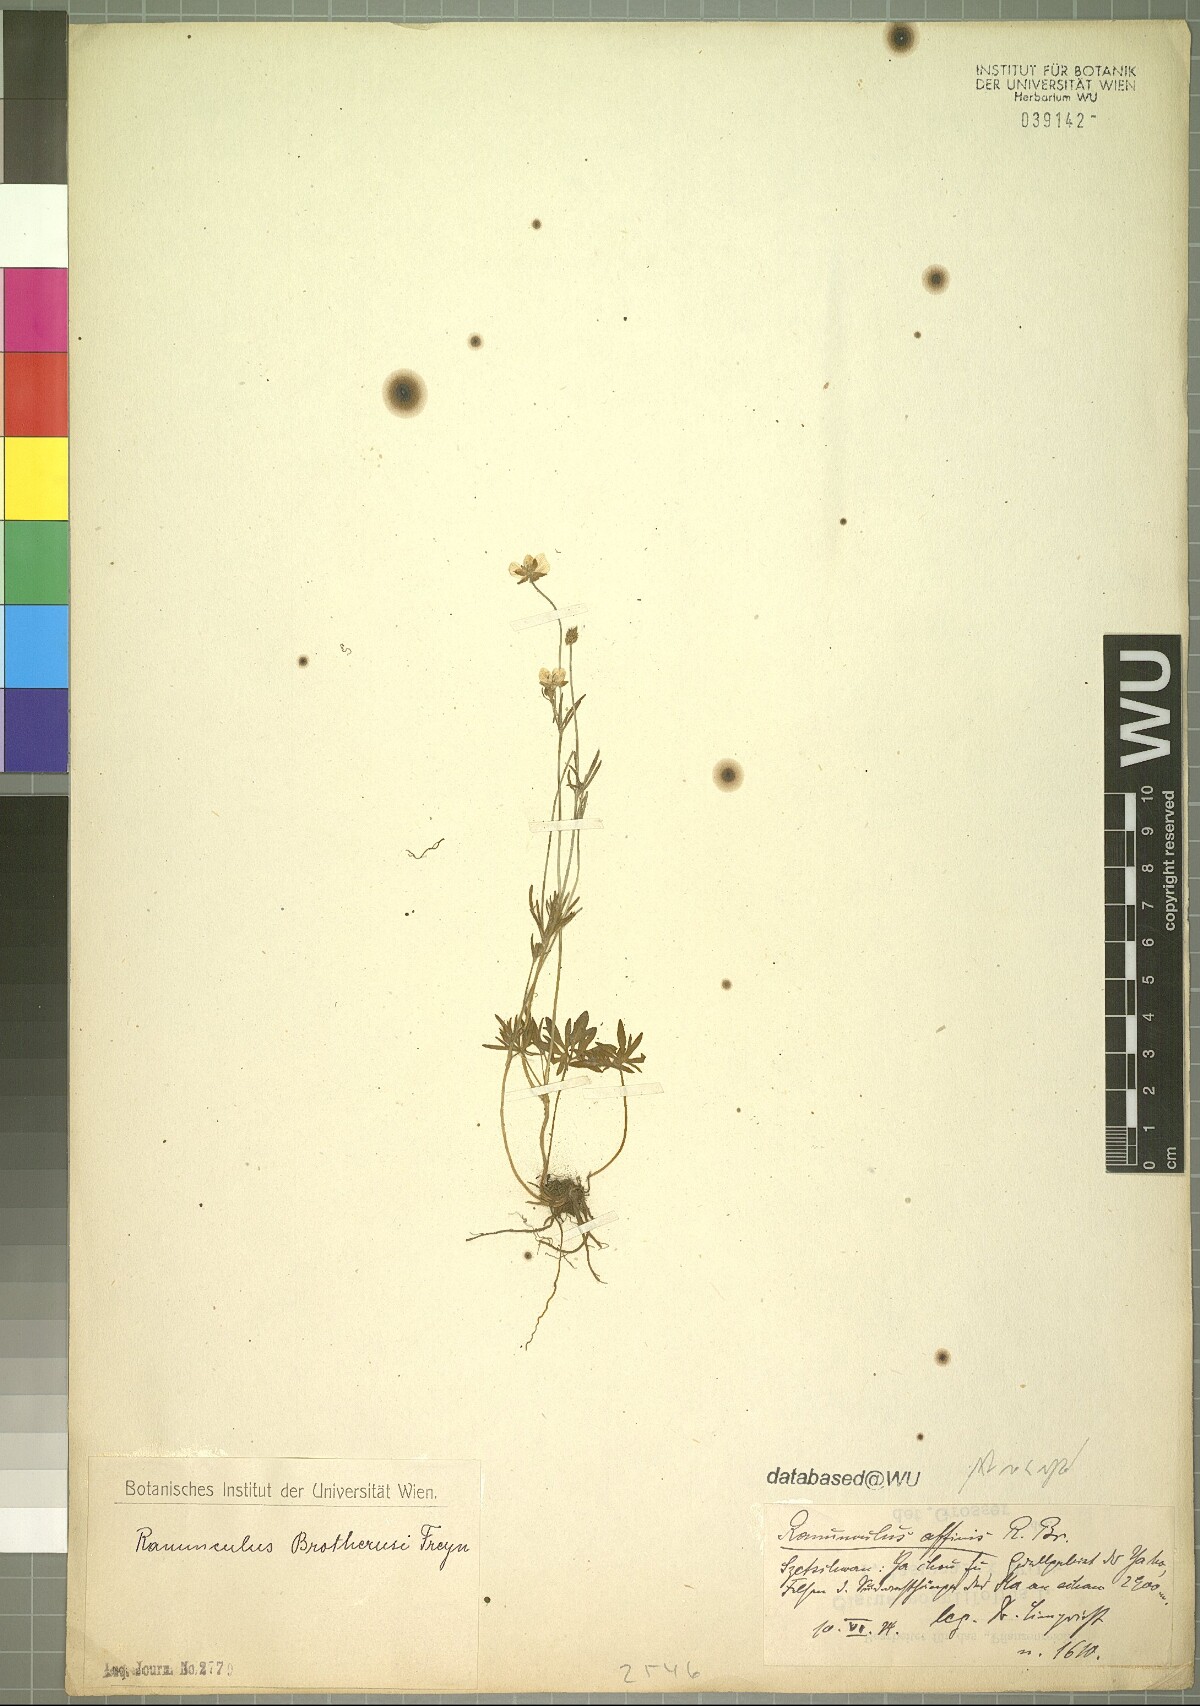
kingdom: Plantae
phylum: Tracheophyta
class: Magnoliopsida
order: Ranunculales
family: Ranunculaceae
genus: Ranunculus
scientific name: Ranunculus brotherusii
